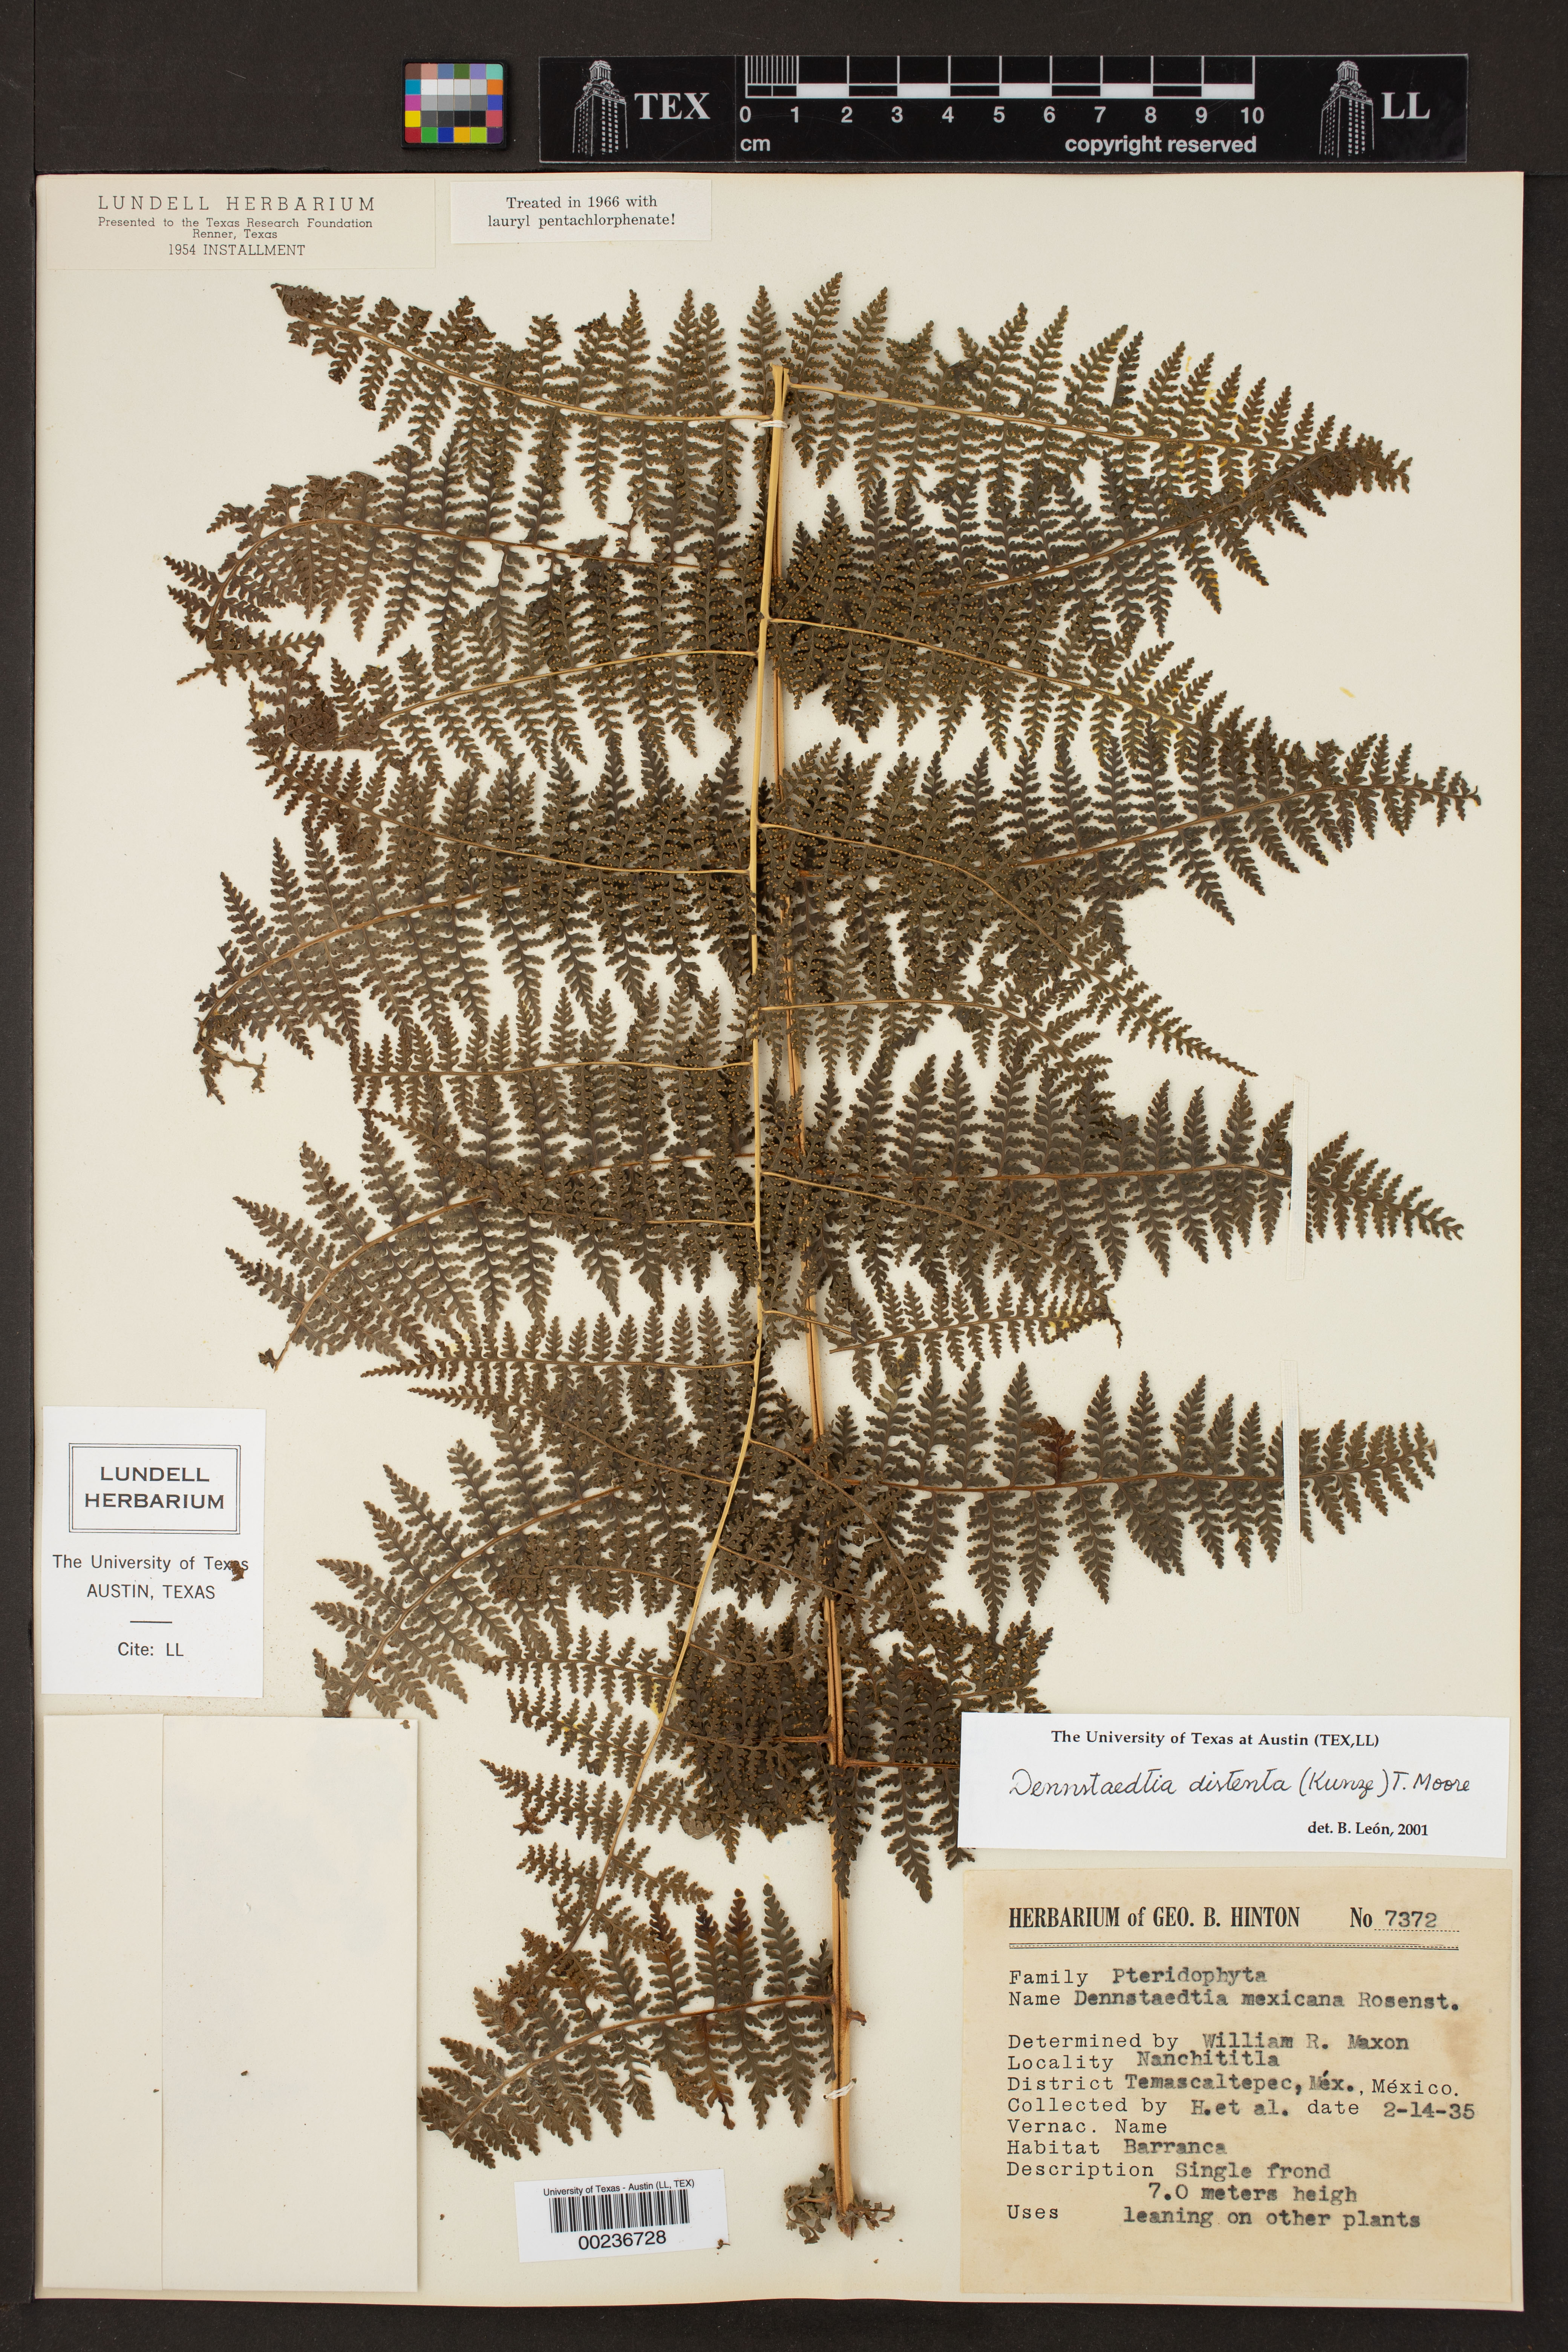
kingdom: Plantae
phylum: Tracheophyta
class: Polypodiopsida
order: Polypodiales
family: Dennstaedtiaceae
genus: Dennstaedtia
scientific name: Dennstaedtia distenta
